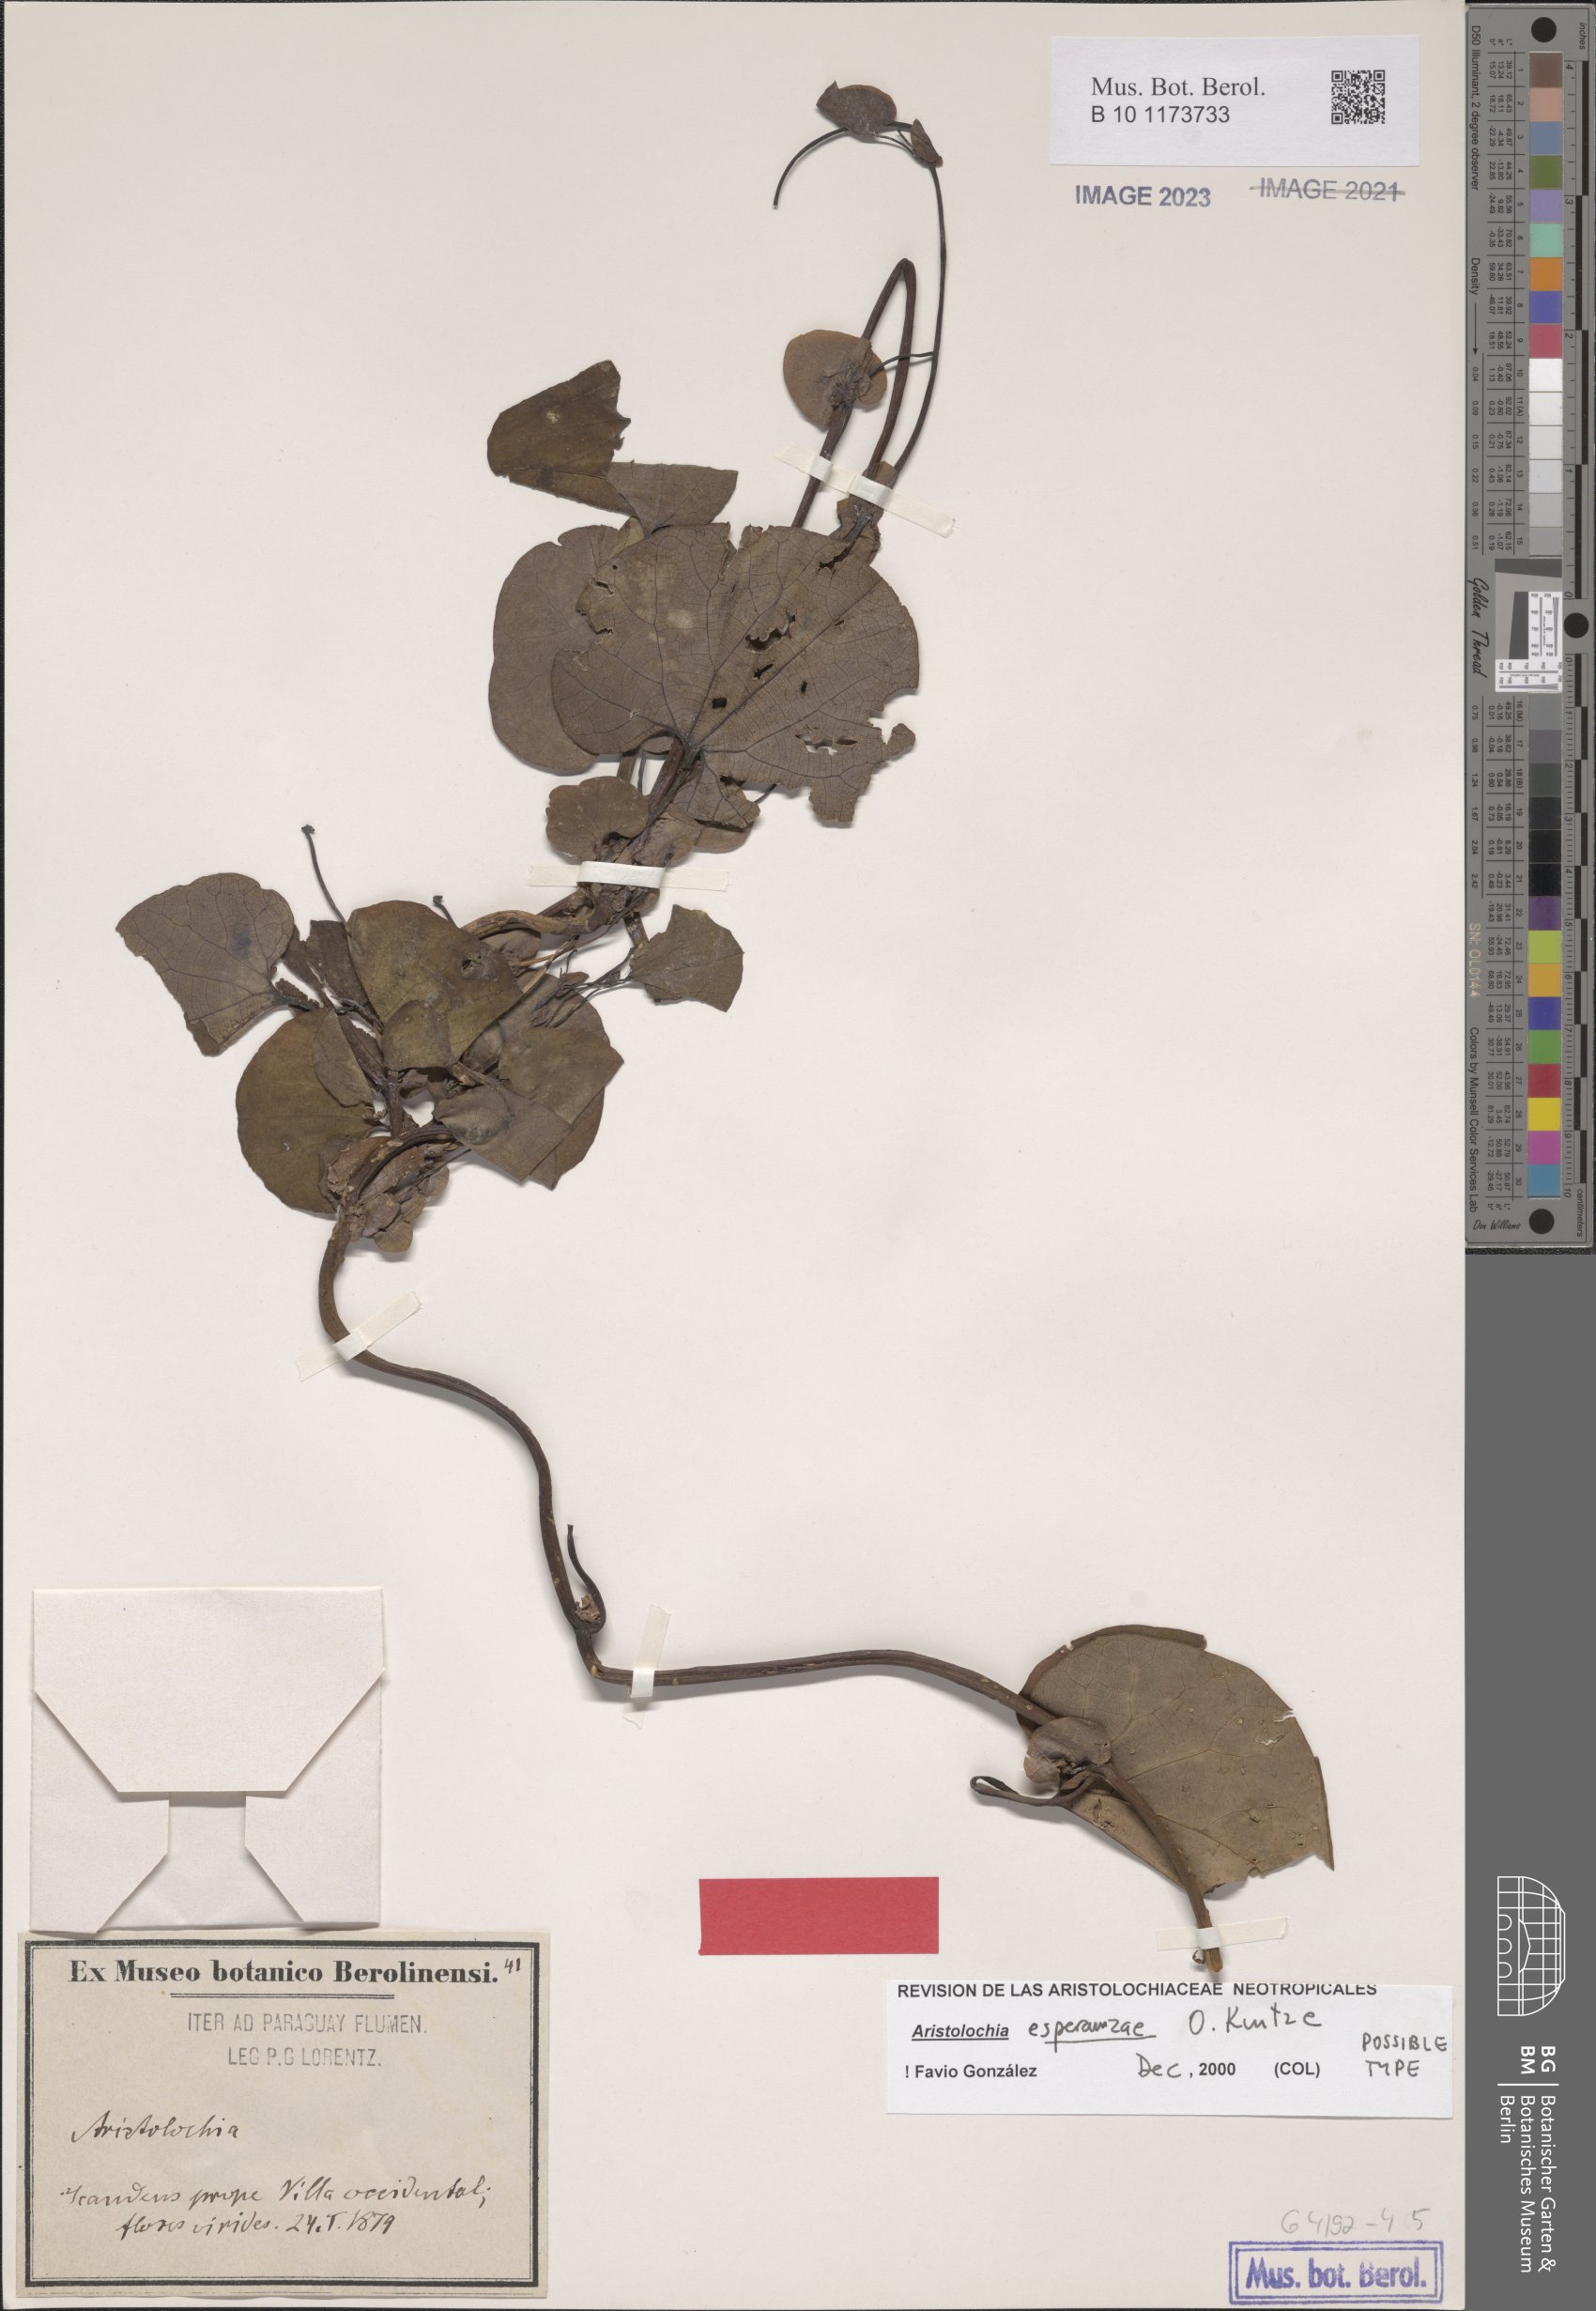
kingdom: Plantae
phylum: Tracheophyta
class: Magnoliopsida
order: Piperales
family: Aristolochiaceae
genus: Aristolochia
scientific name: Aristolochia esperanzae
